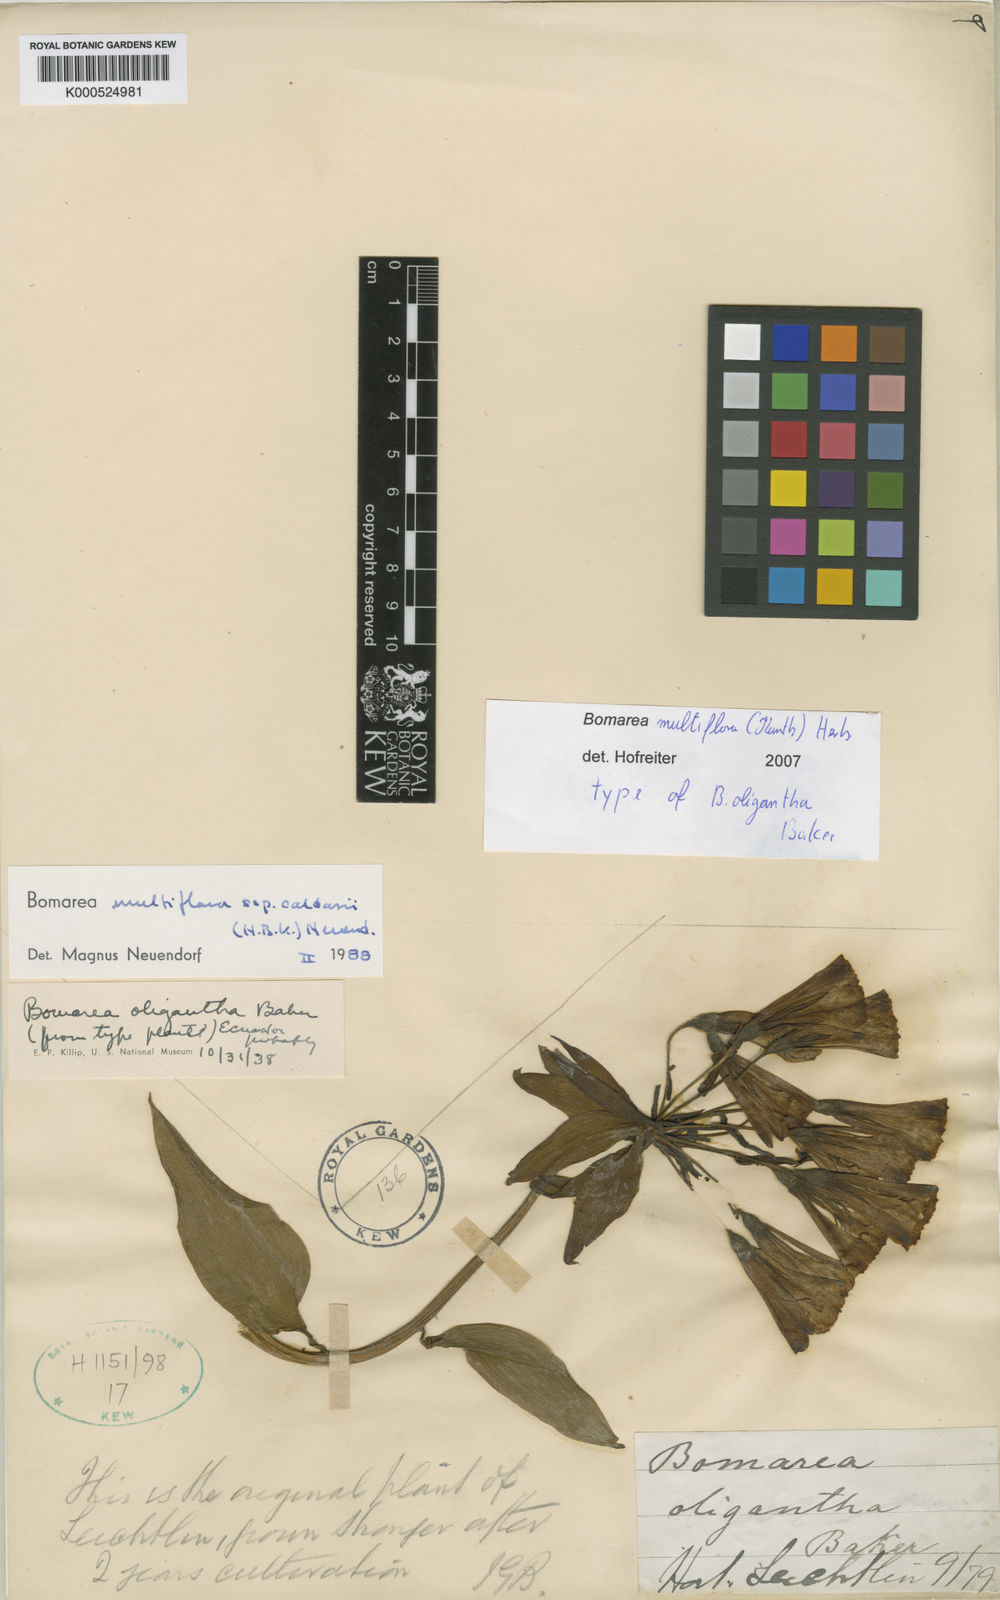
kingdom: Plantae
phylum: Tracheophyta
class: Liliopsida
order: Liliales
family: Alstroemeriaceae
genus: Bomarea
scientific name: Bomarea
